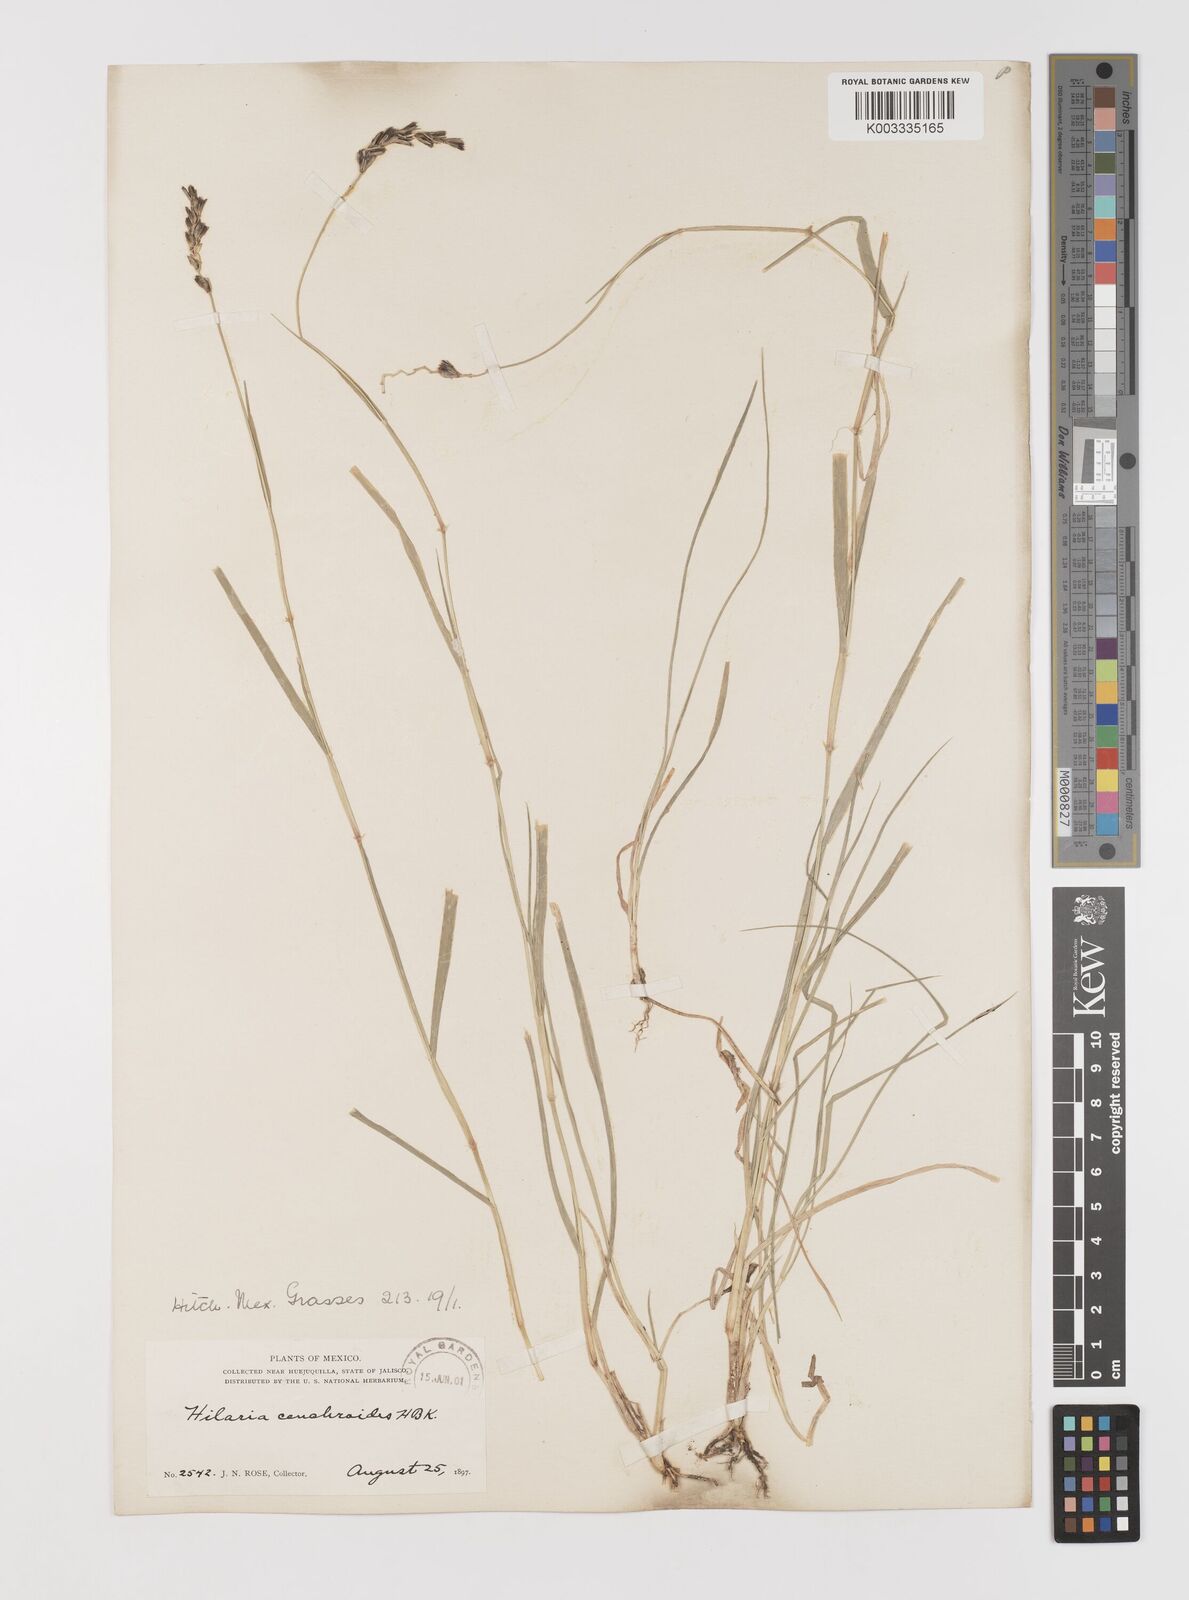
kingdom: Plantae
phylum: Tracheophyta
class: Liliopsida
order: Poales
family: Poaceae
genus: Hilaria
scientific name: Hilaria cenchroides
